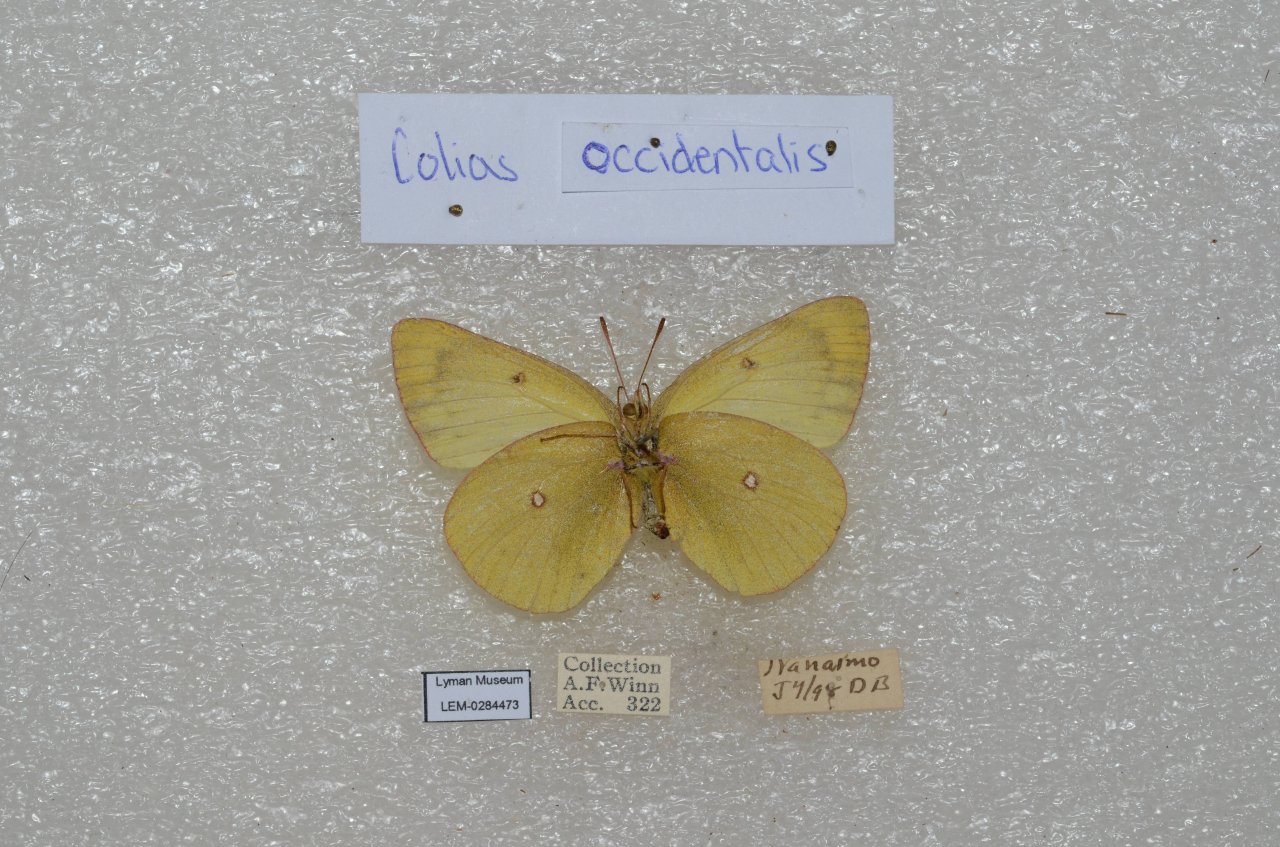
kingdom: Animalia
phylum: Arthropoda
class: Insecta
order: Lepidoptera
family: Pieridae
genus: Colias
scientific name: Colias occidentalis
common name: Western Sulphur
